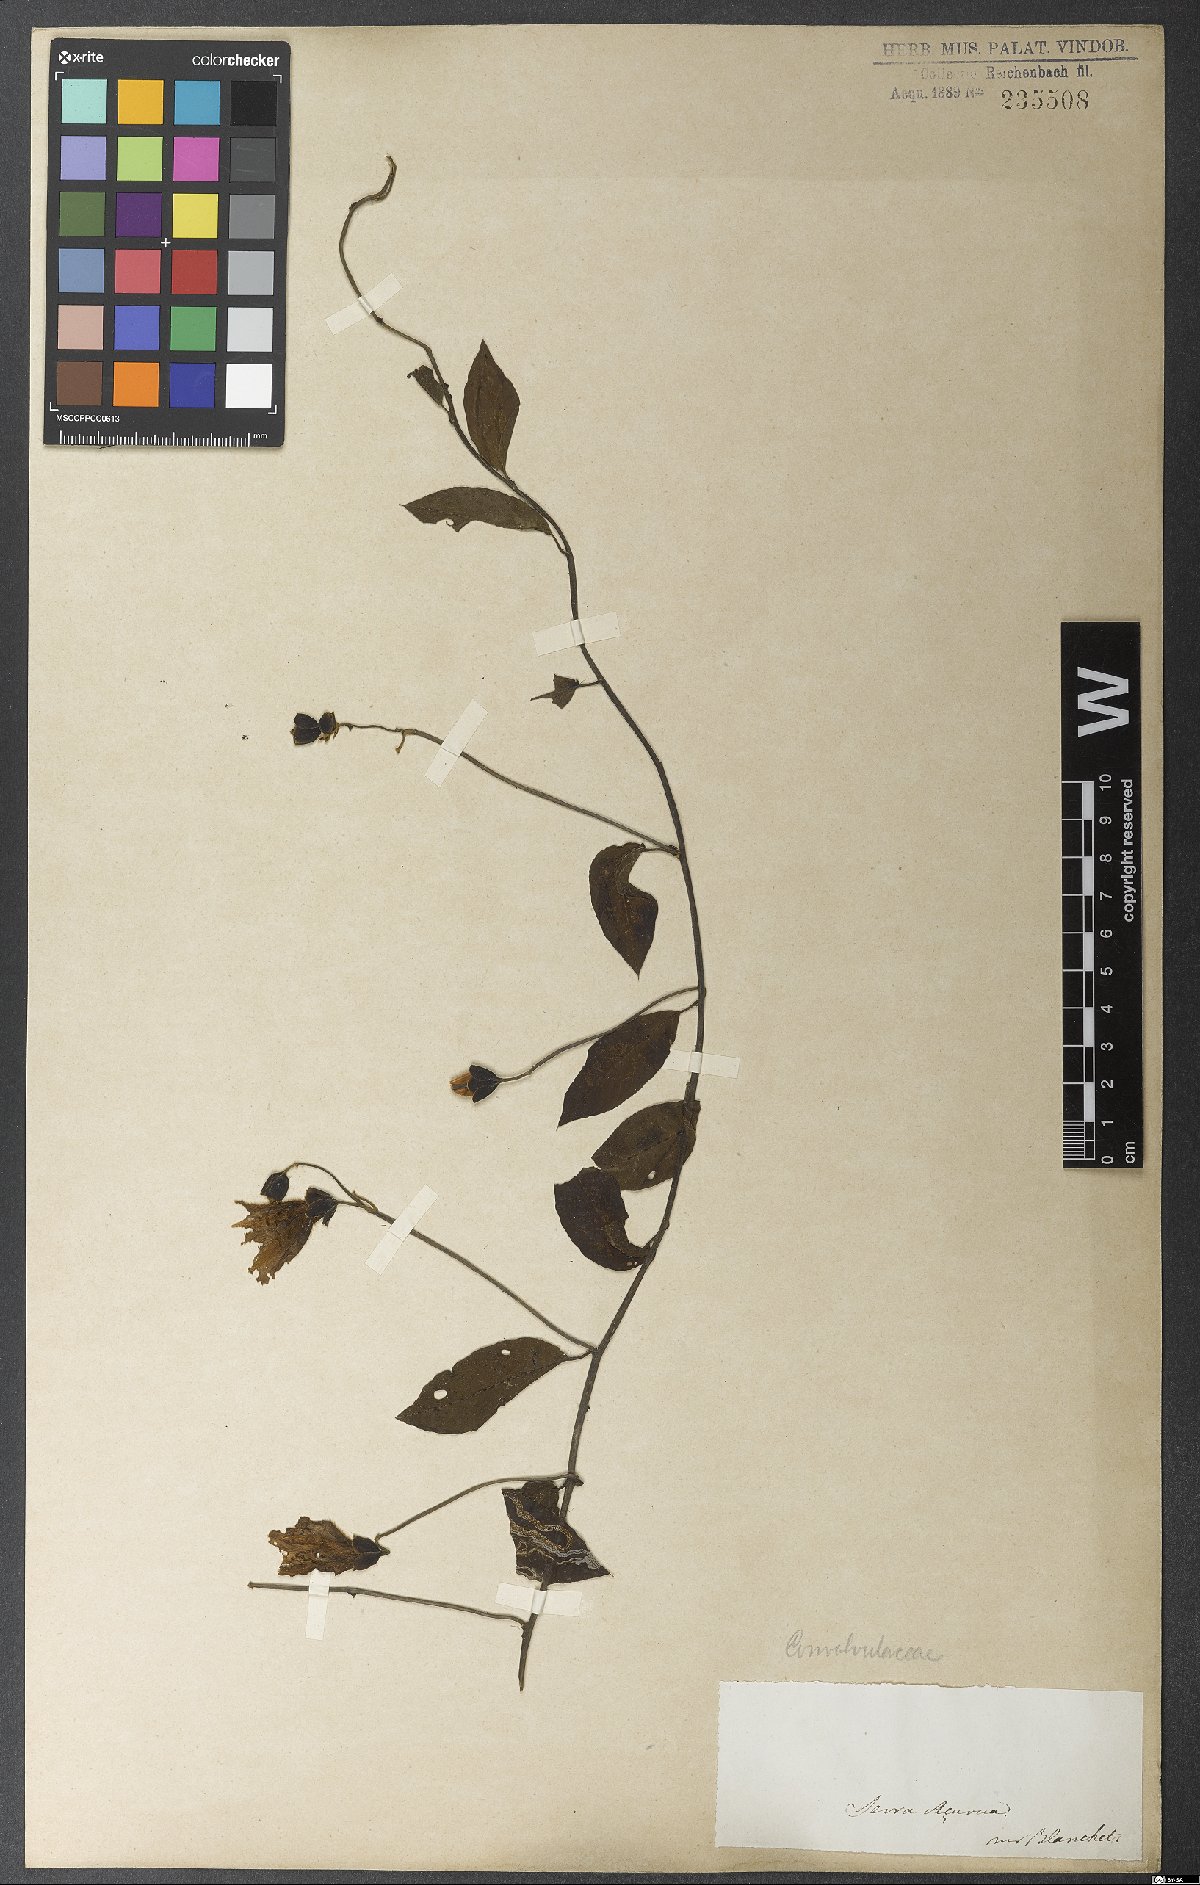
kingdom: Plantae
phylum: Tracheophyta
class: Magnoliopsida
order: Solanales
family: Convolvulaceae
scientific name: Convolvulaceae
